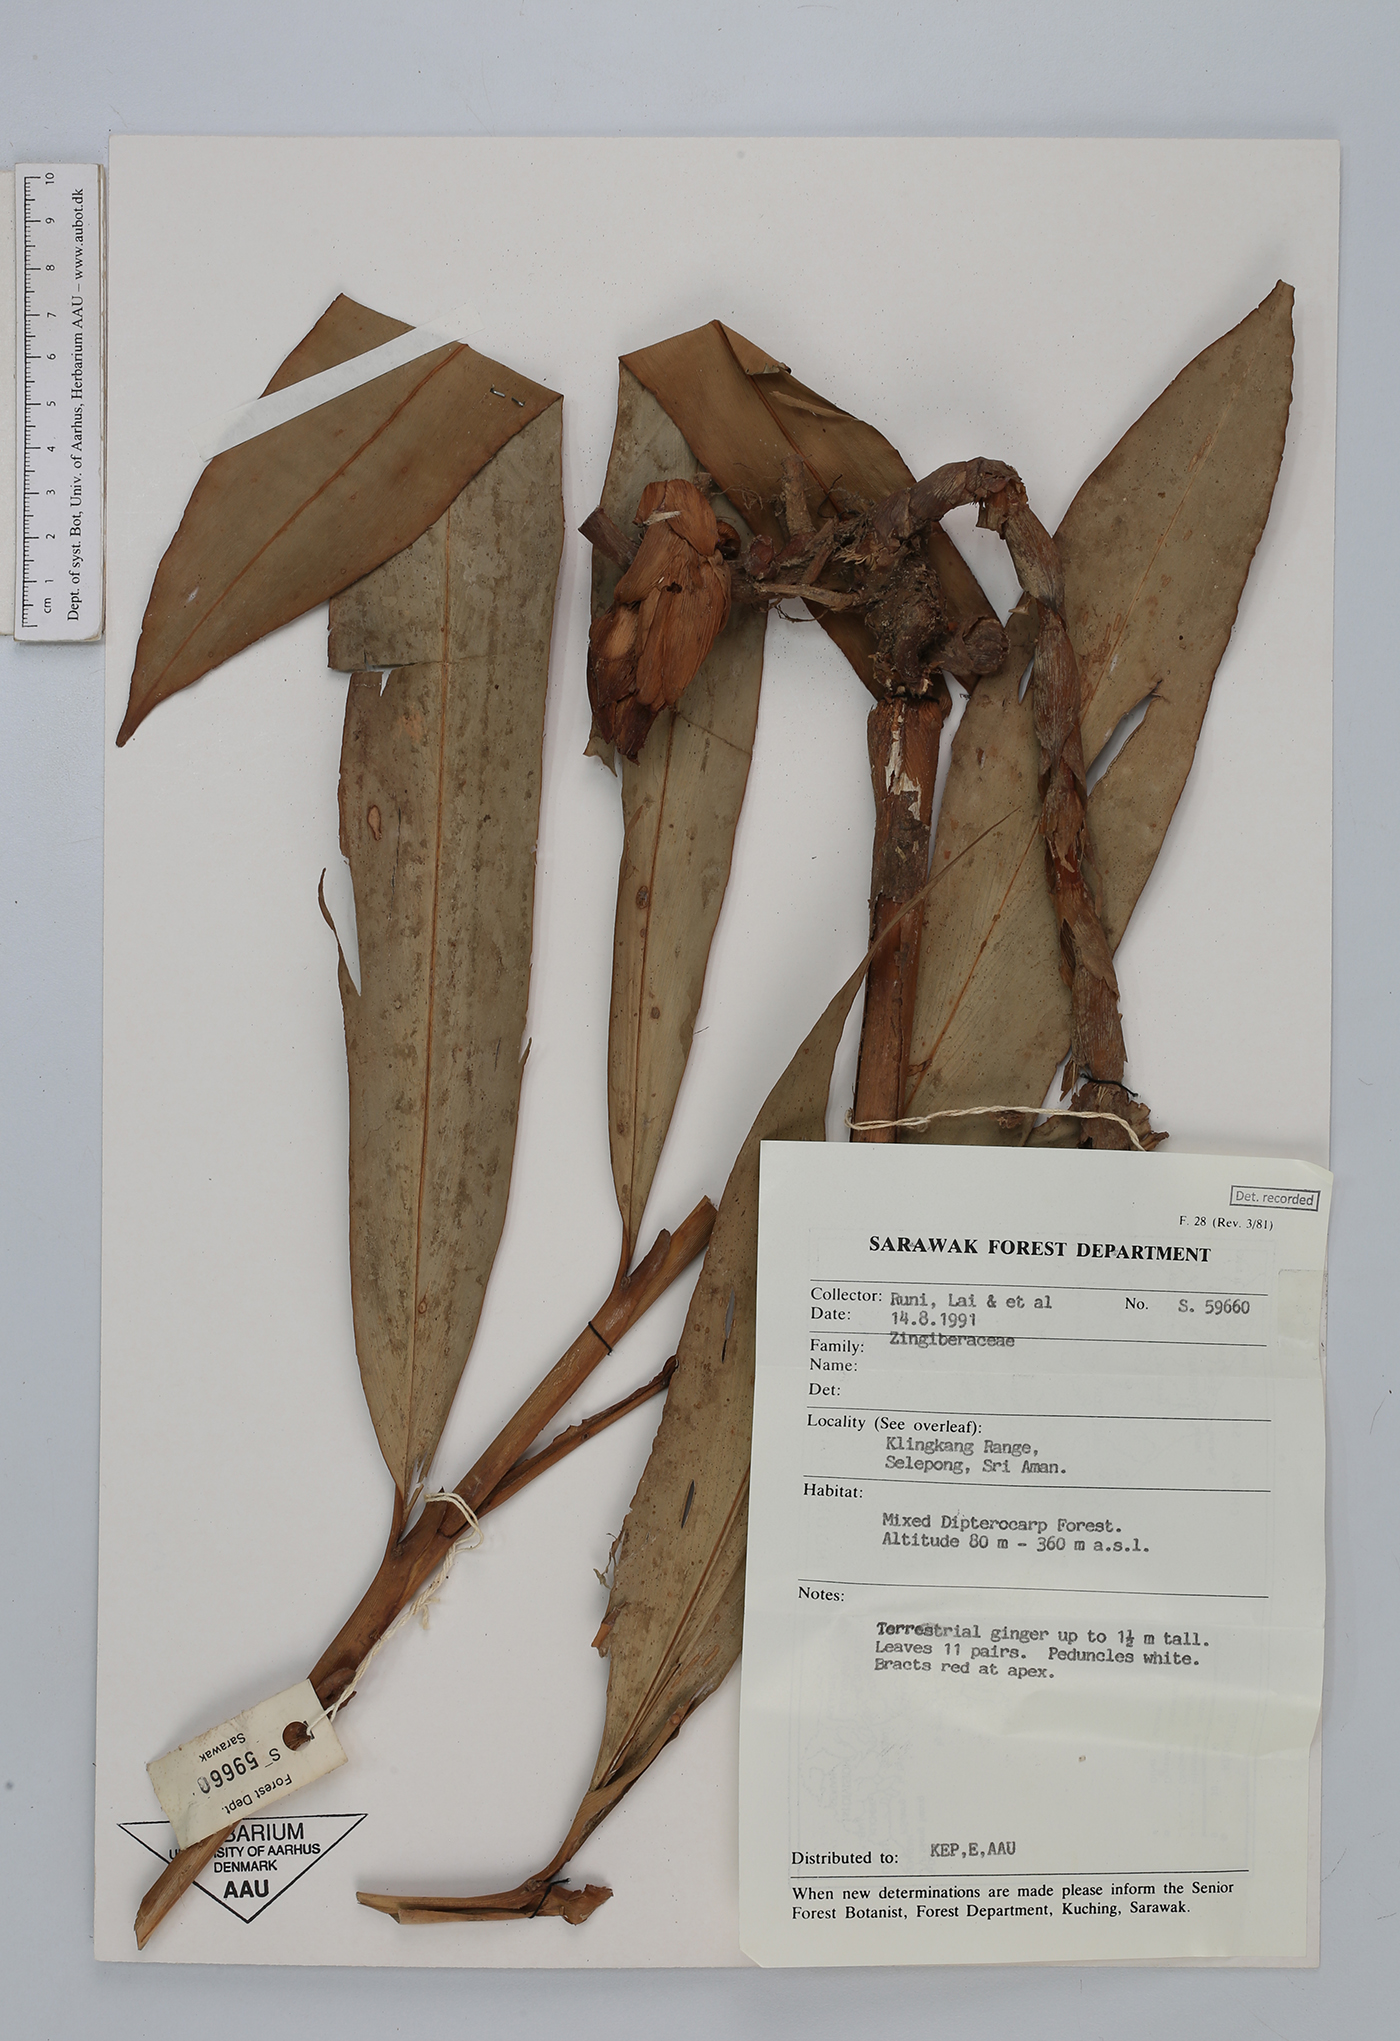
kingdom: Plantae
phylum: Tracheophyta
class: Liliopsida
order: Zingiberales
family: Zingiberaceae
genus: Etlingera
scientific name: Etlingera
